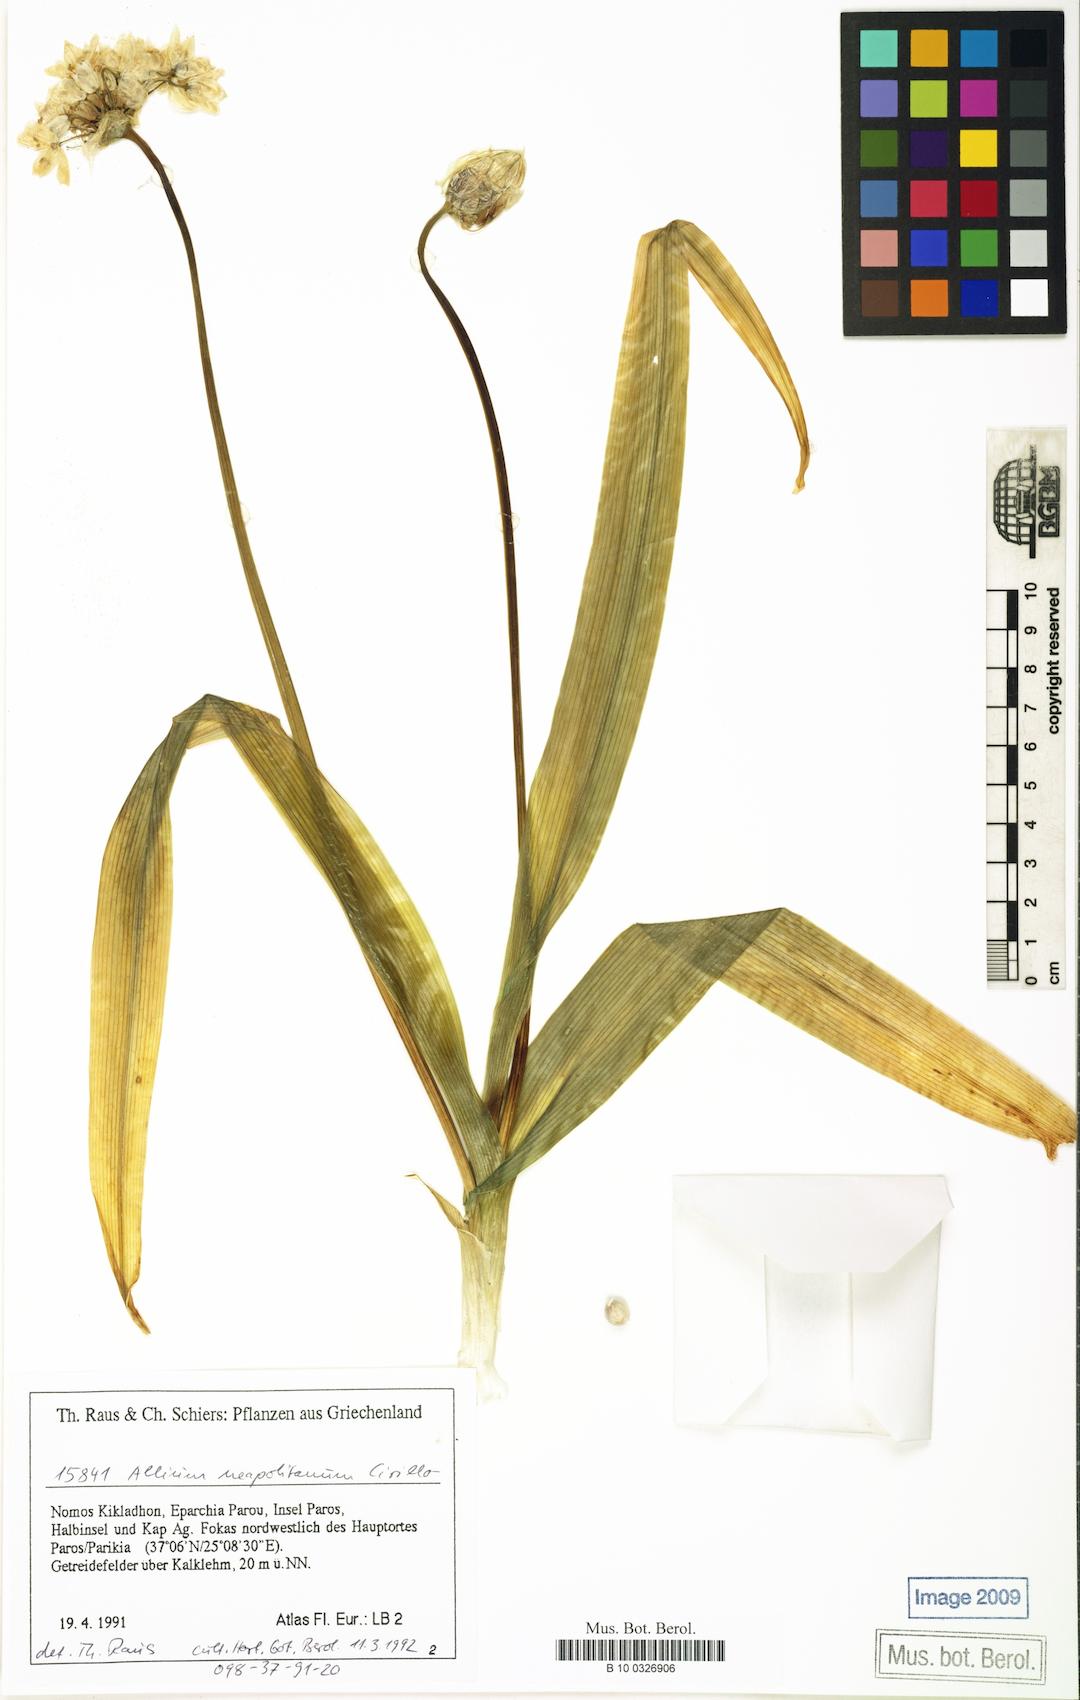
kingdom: Plantae
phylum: Tracheophyta
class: Liliopsida
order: Asparagales
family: Amaryllidaceae
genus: Allium
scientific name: Allium neapolitanum
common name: Neapolitan garlic
